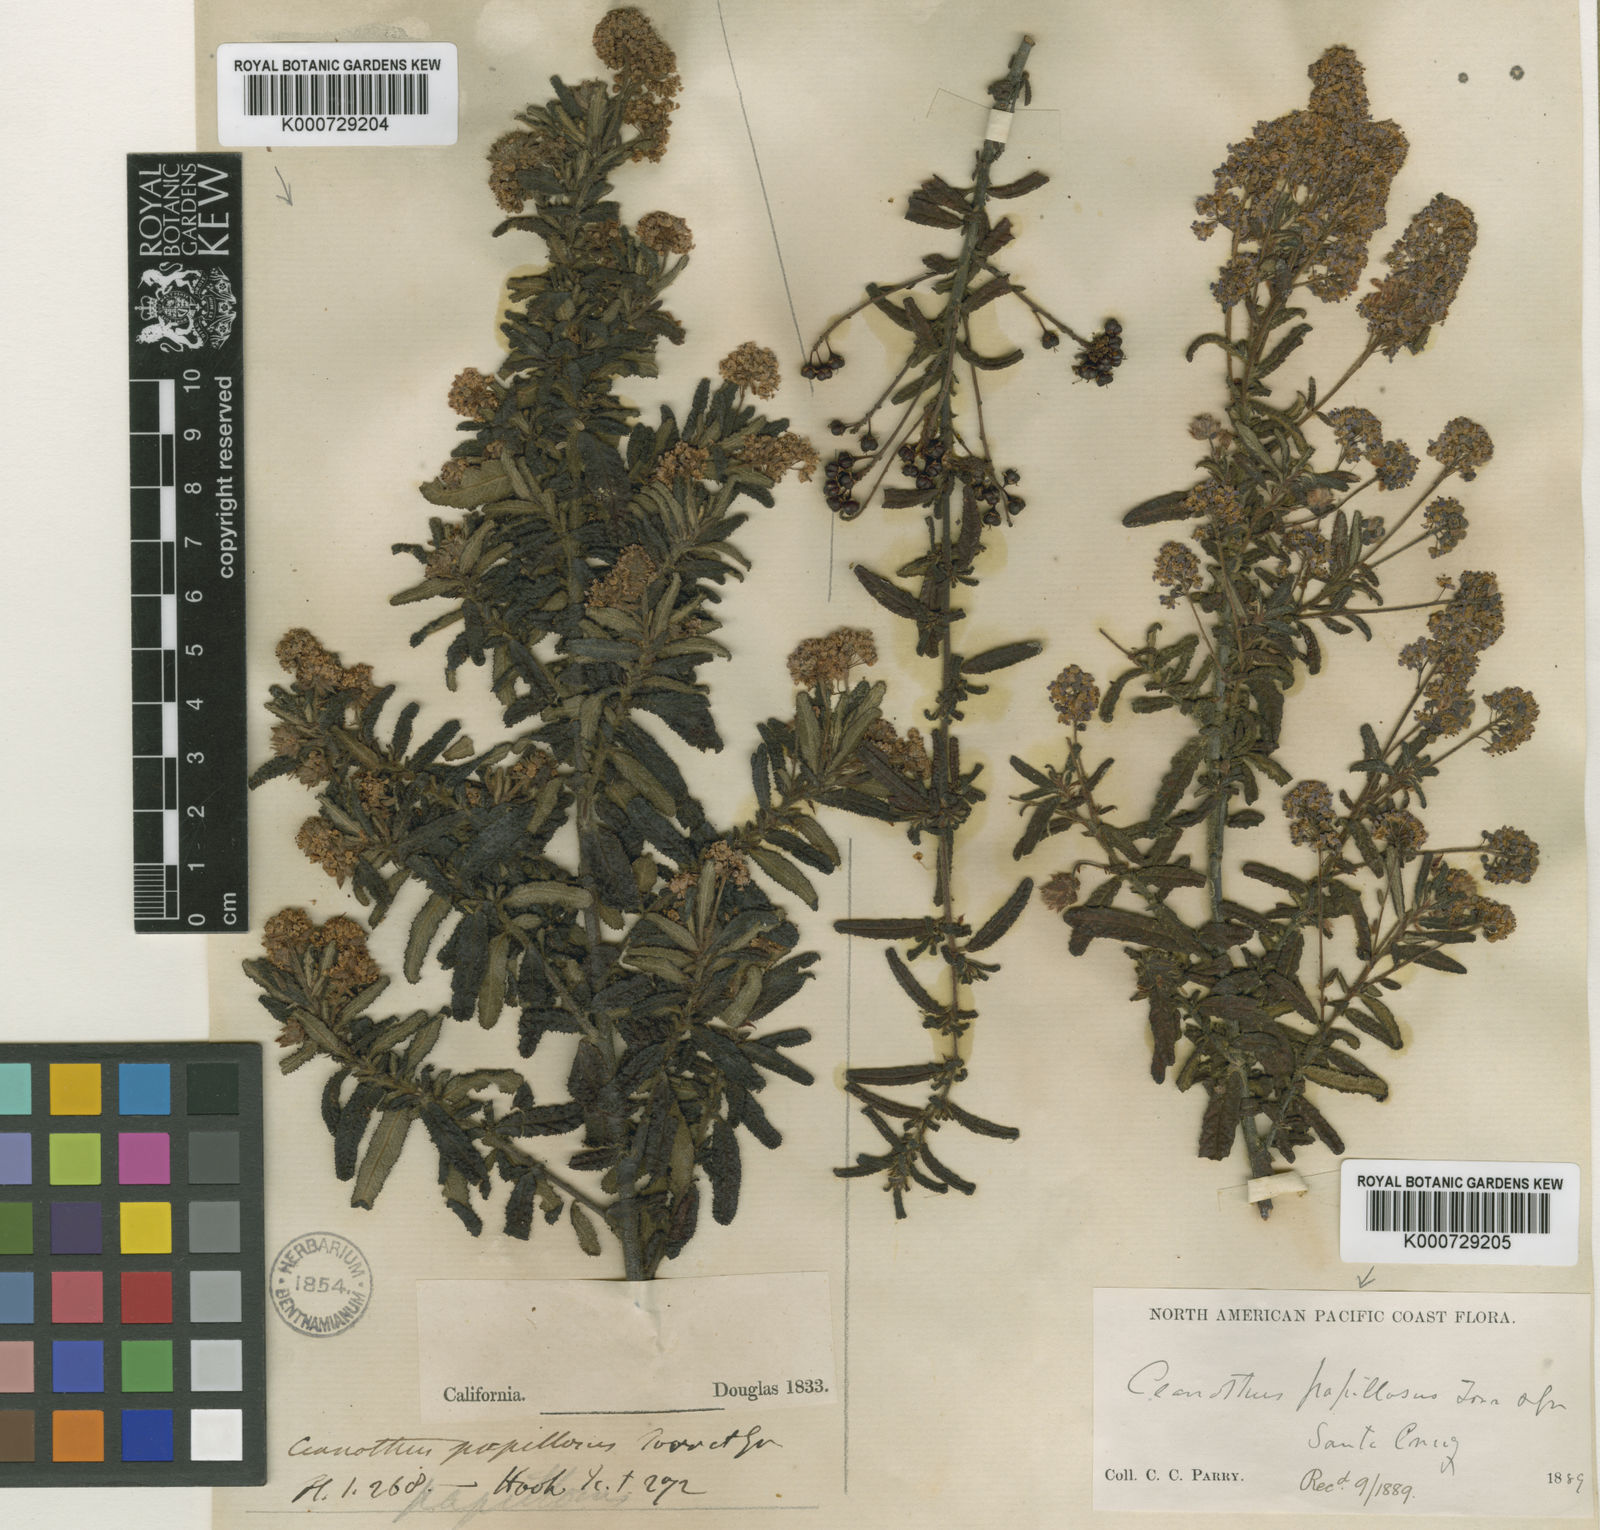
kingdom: Plantae
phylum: Tracheophyta
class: Magnoliopsida
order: Rosales
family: Rhamnaceae
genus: Ceanothus
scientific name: Ceanothus papillosus
